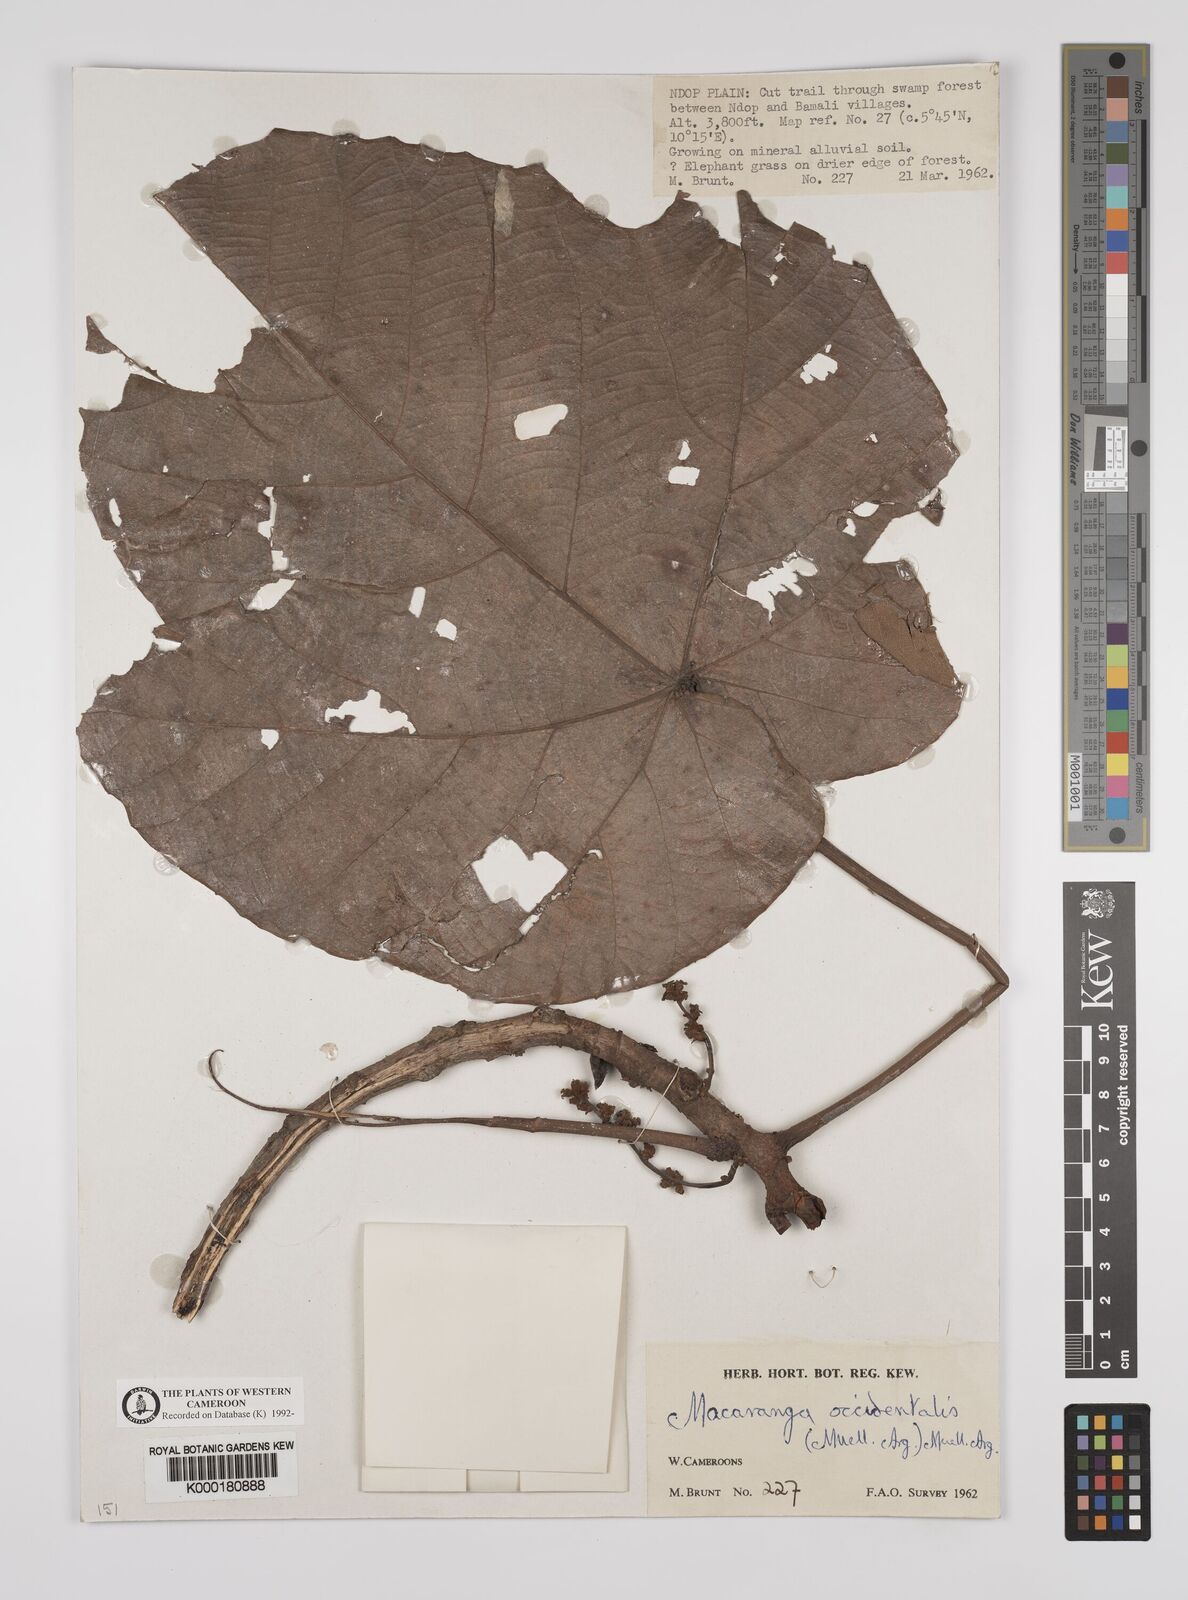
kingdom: Plantae
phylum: Tracheophyta
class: Magnoliopsida
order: Malpighiales
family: Euphorbiaceae
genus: Macaranga
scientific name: Macaranga
